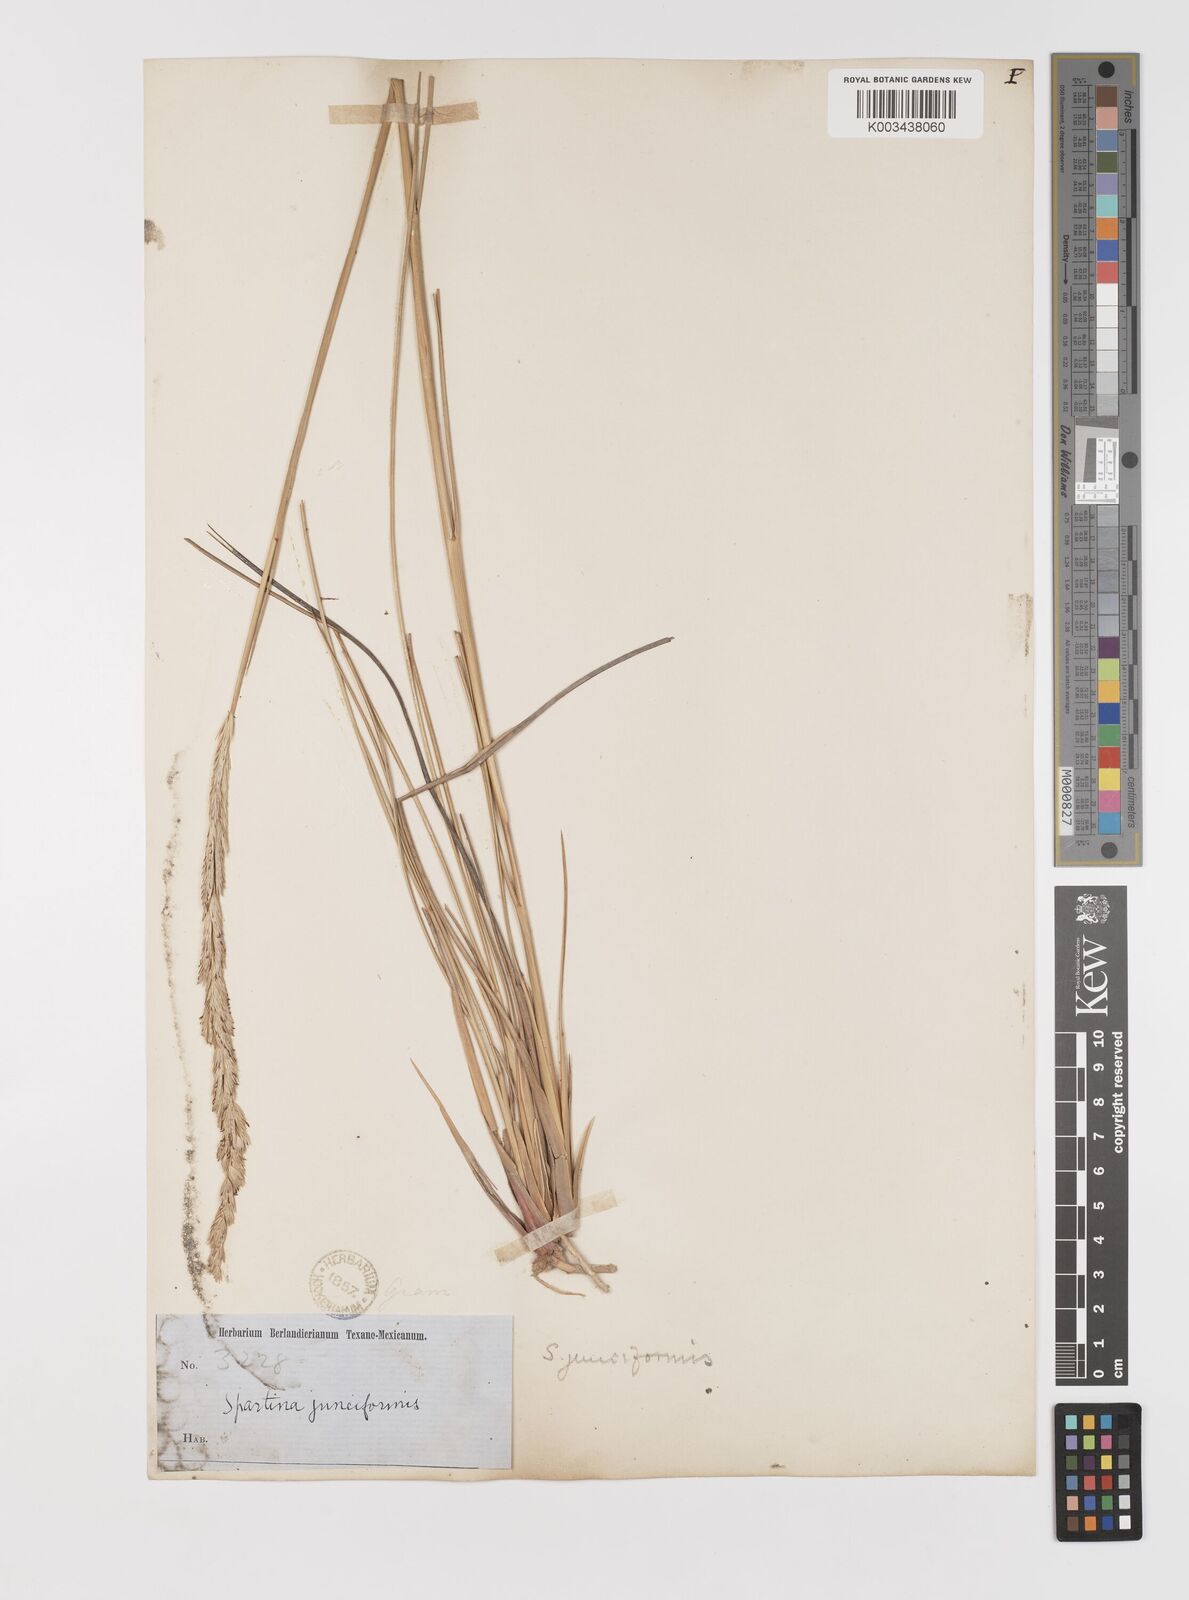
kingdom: Plantae
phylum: Tracheophyta
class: Liliopsida
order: Poales
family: Poaceae
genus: Sporobolus
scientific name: Sporobolus spartinae
